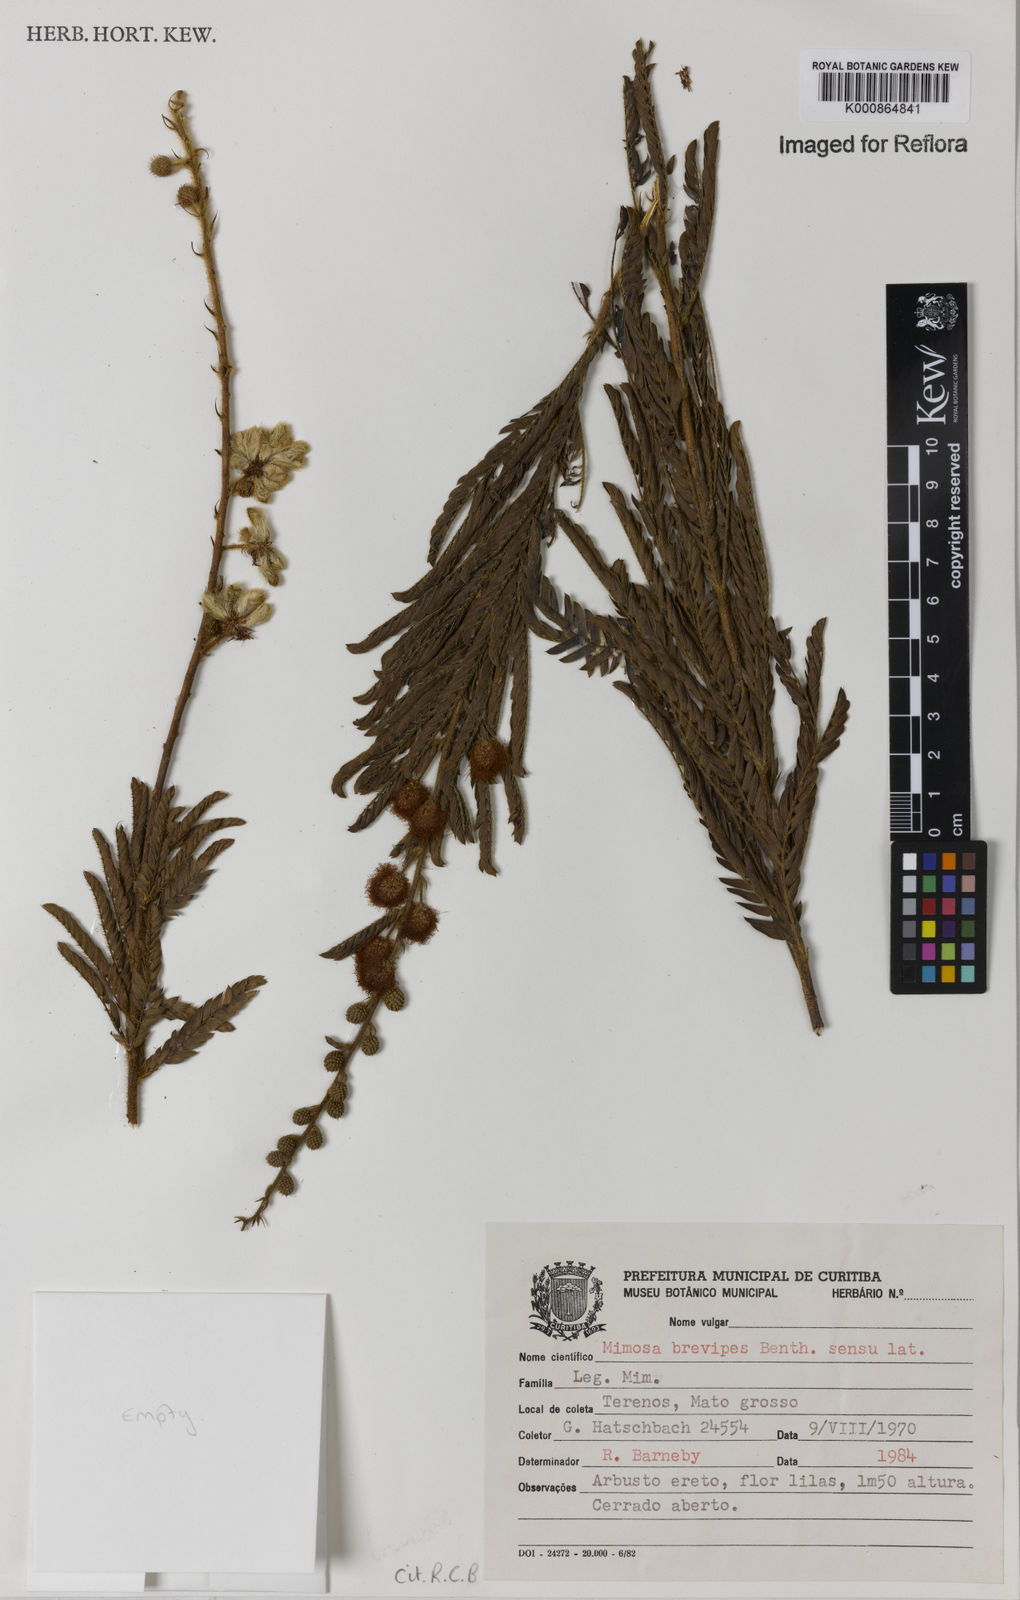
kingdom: Plantae
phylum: Tracheophyta
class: Magnoliopsida
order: Fabales
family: Fabaceae
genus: Mimosa
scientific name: Mimosa brevipes
